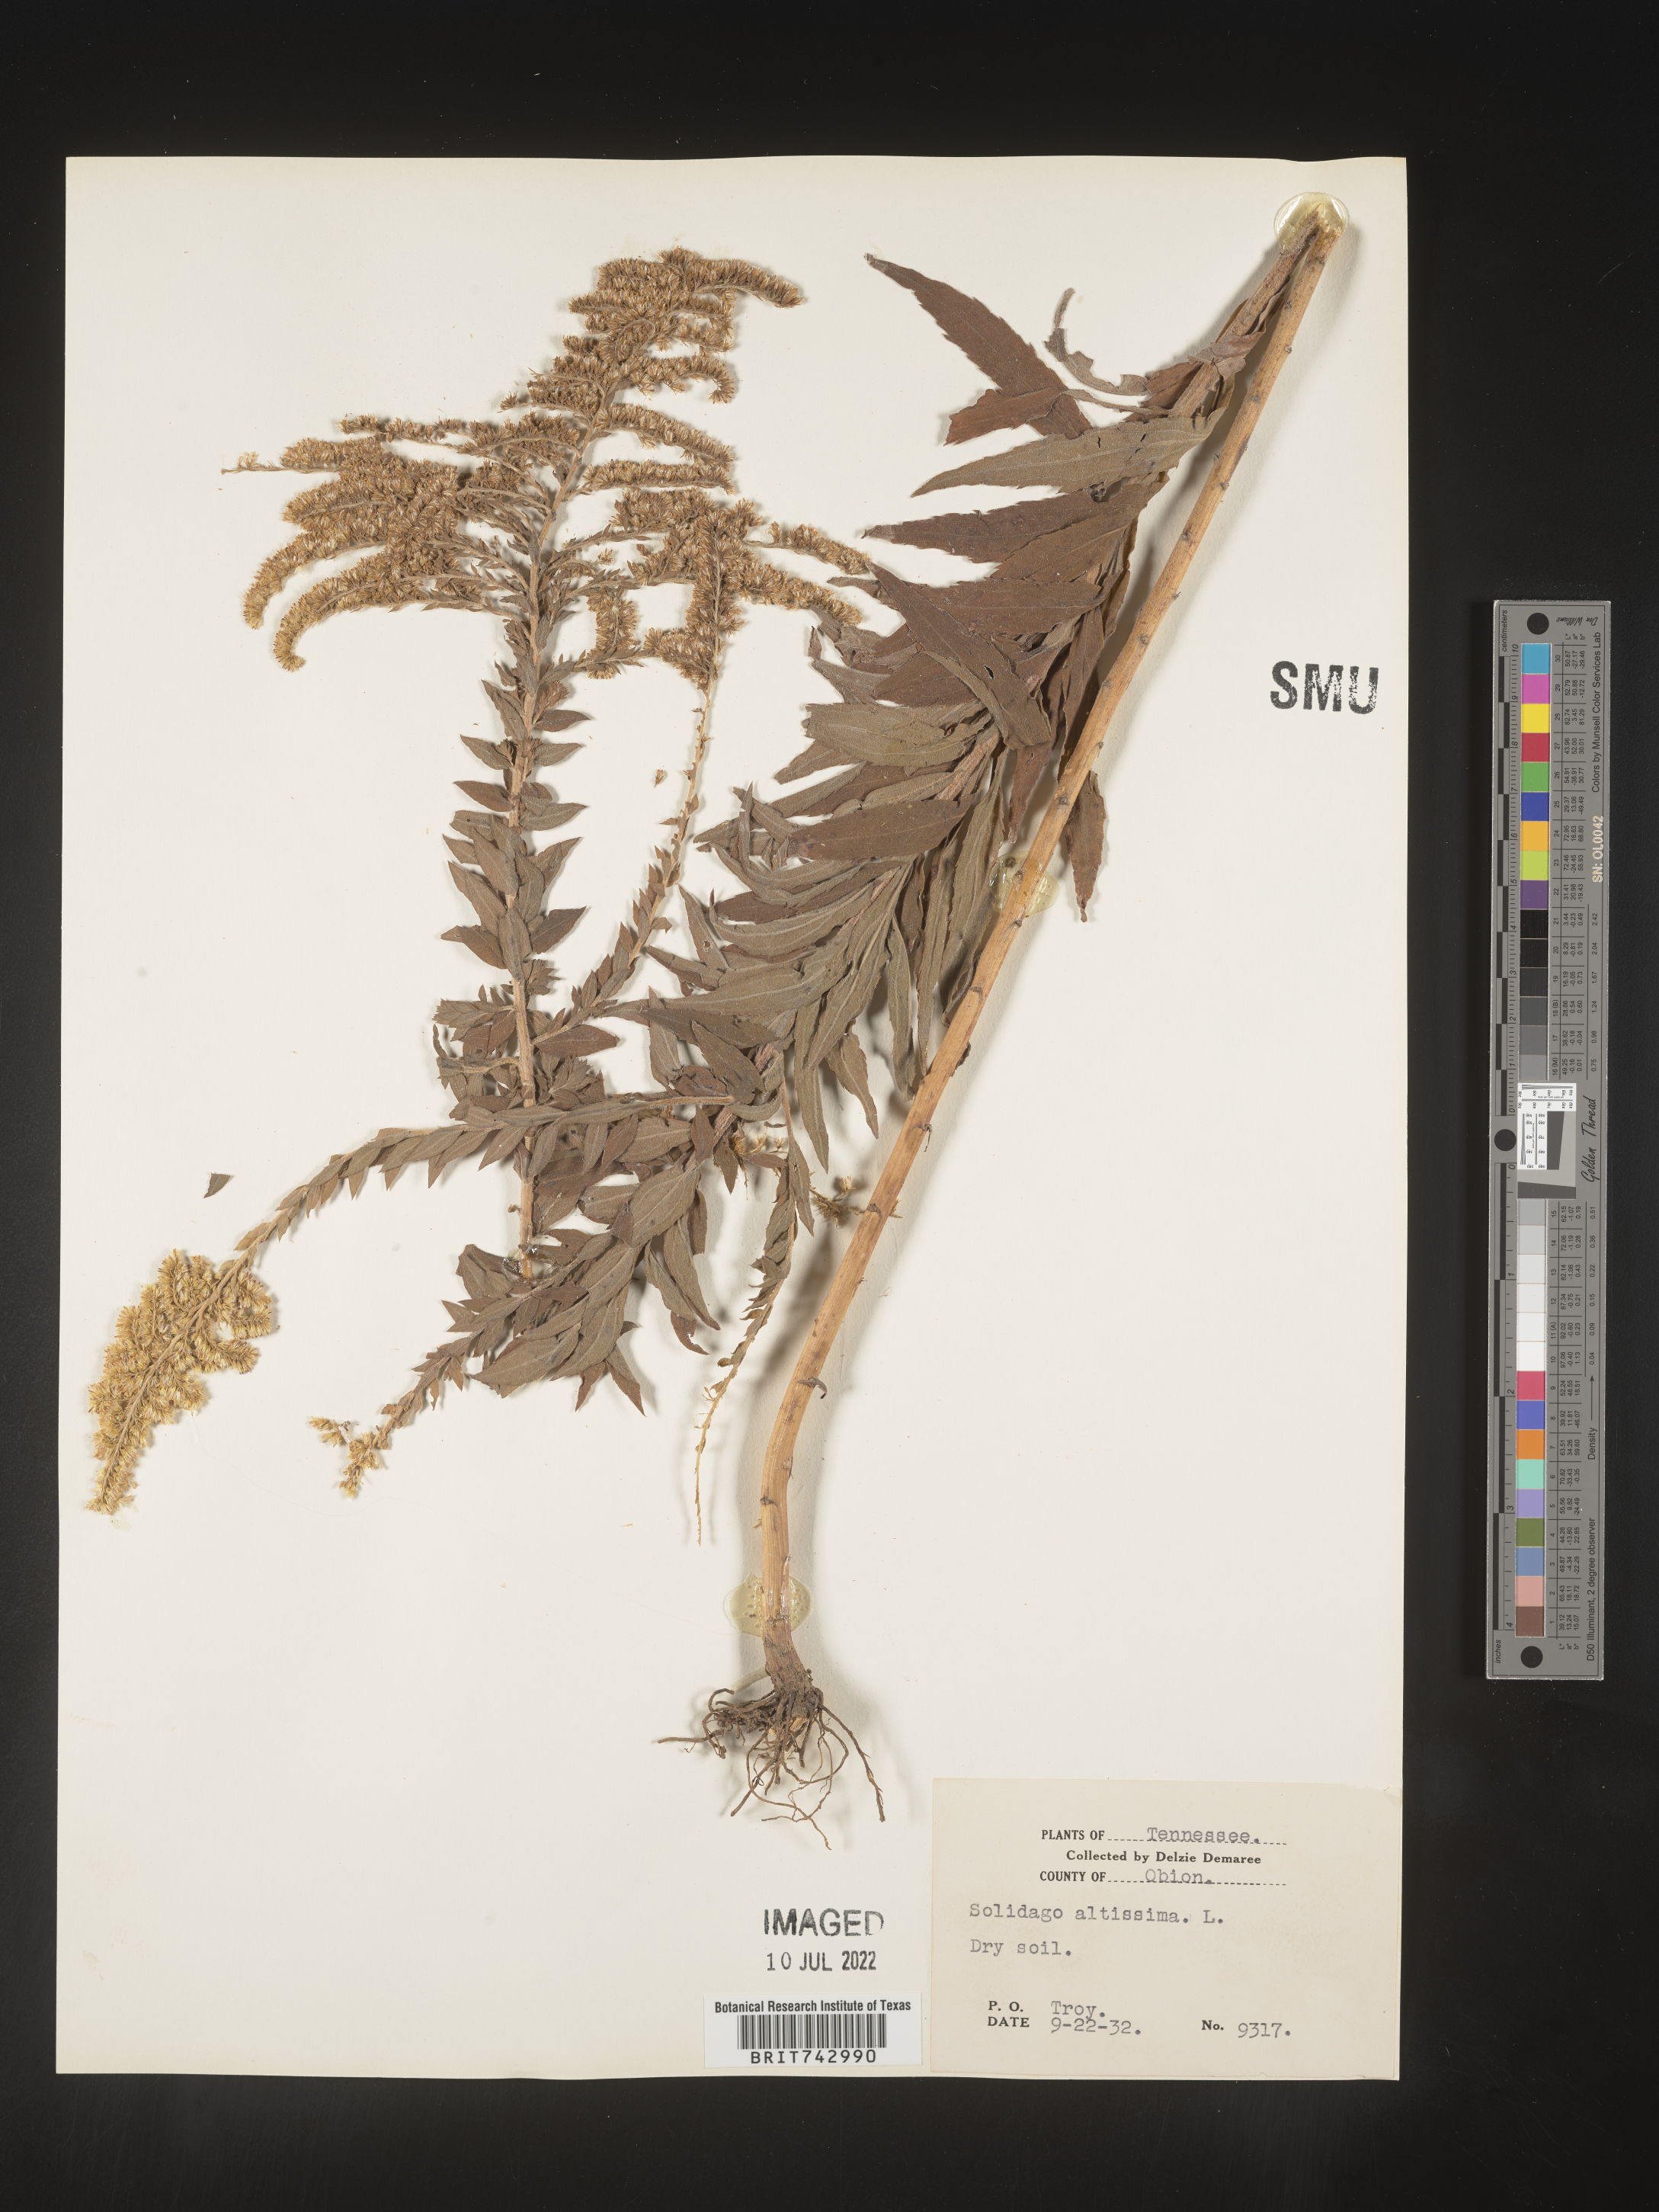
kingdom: Plantae
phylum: Tracheophyta
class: Magnoliopsida
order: Asterales
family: Asteraceae
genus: Solidago
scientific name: Solidago altissima
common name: Late goldenrod
